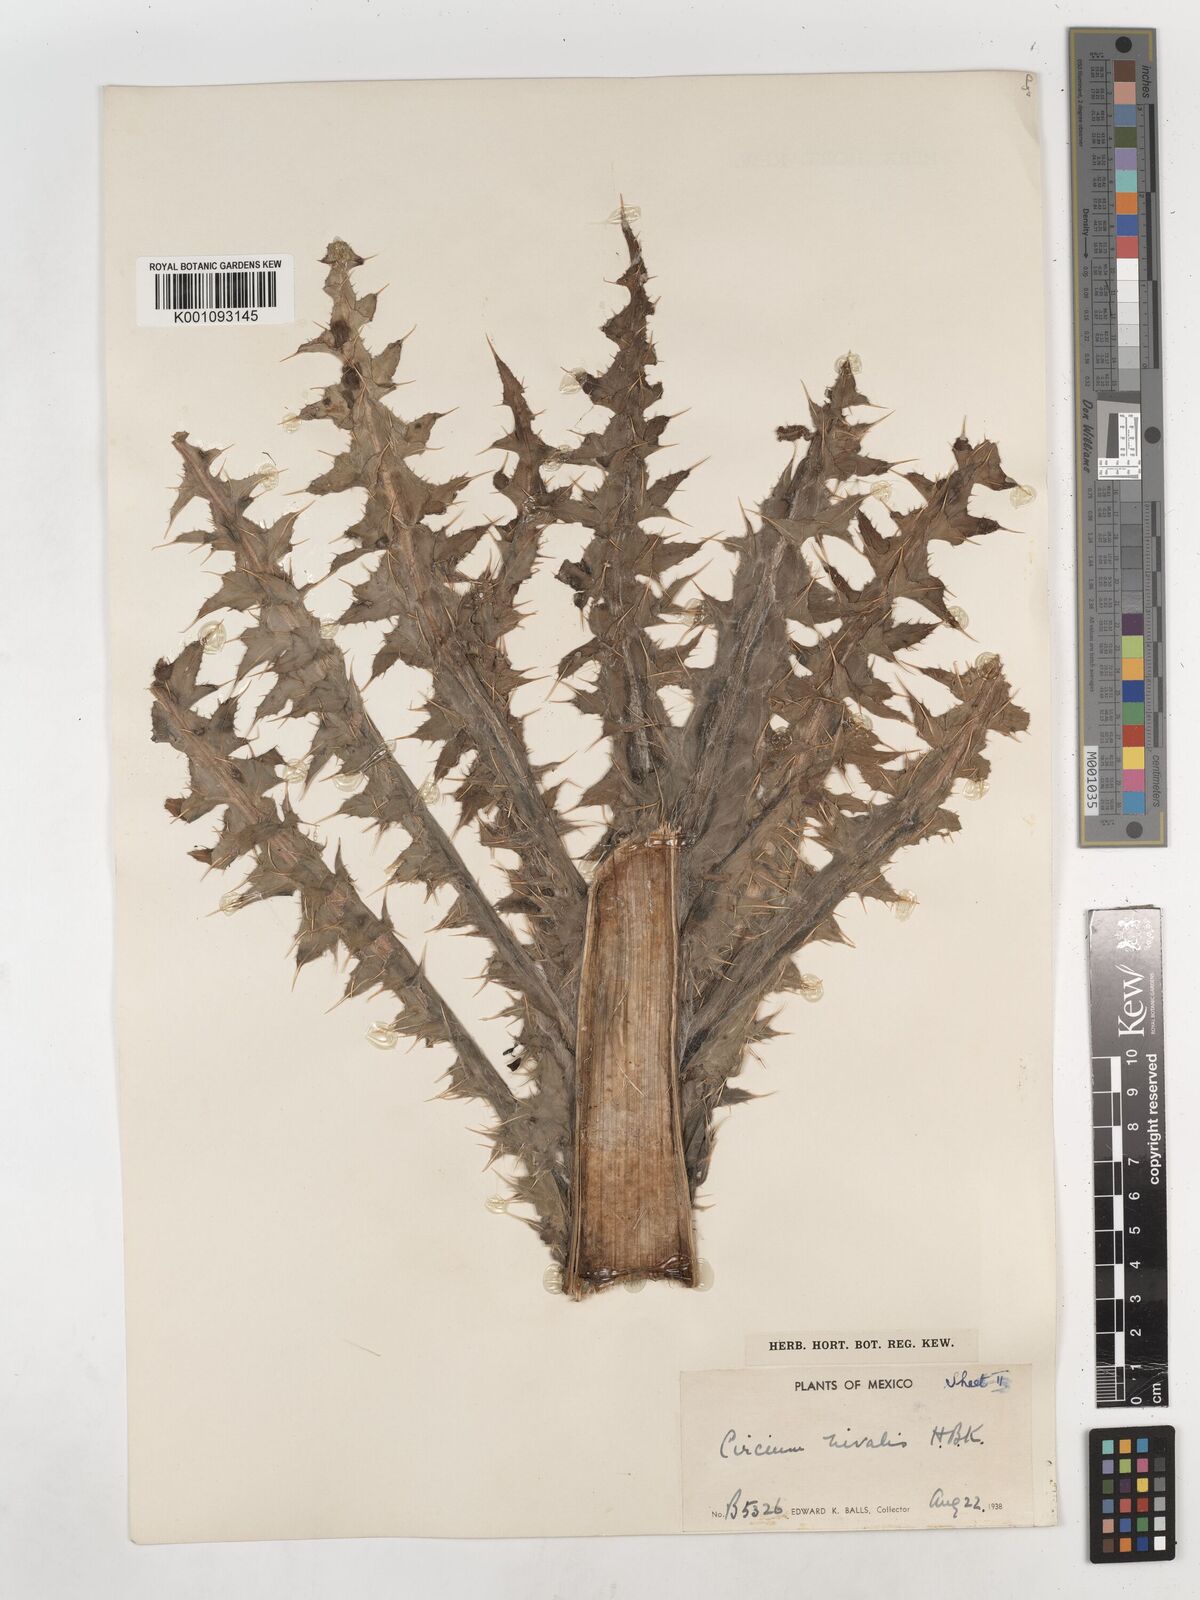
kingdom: Plantae
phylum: Tracheophyta
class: Magnoliopsida
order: Asterales
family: Asteraceae
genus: Cirsium
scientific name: Cirsium nivale
